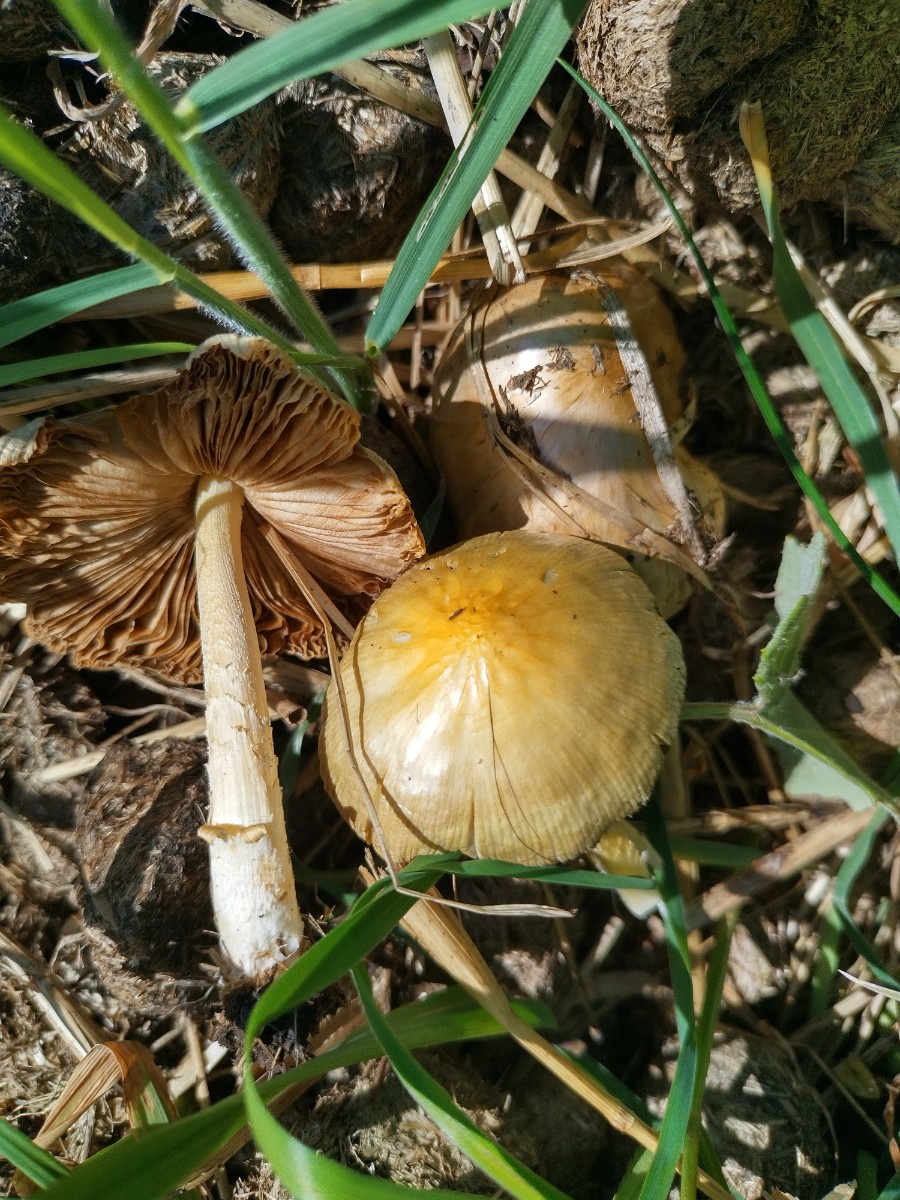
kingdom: Fungi
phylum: Basidiomycota
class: Agaricomycetes
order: Agaricales
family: Bolbitiaceae
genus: Bolbitius
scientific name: Bolbitius titubans
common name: almindelig gulhat
